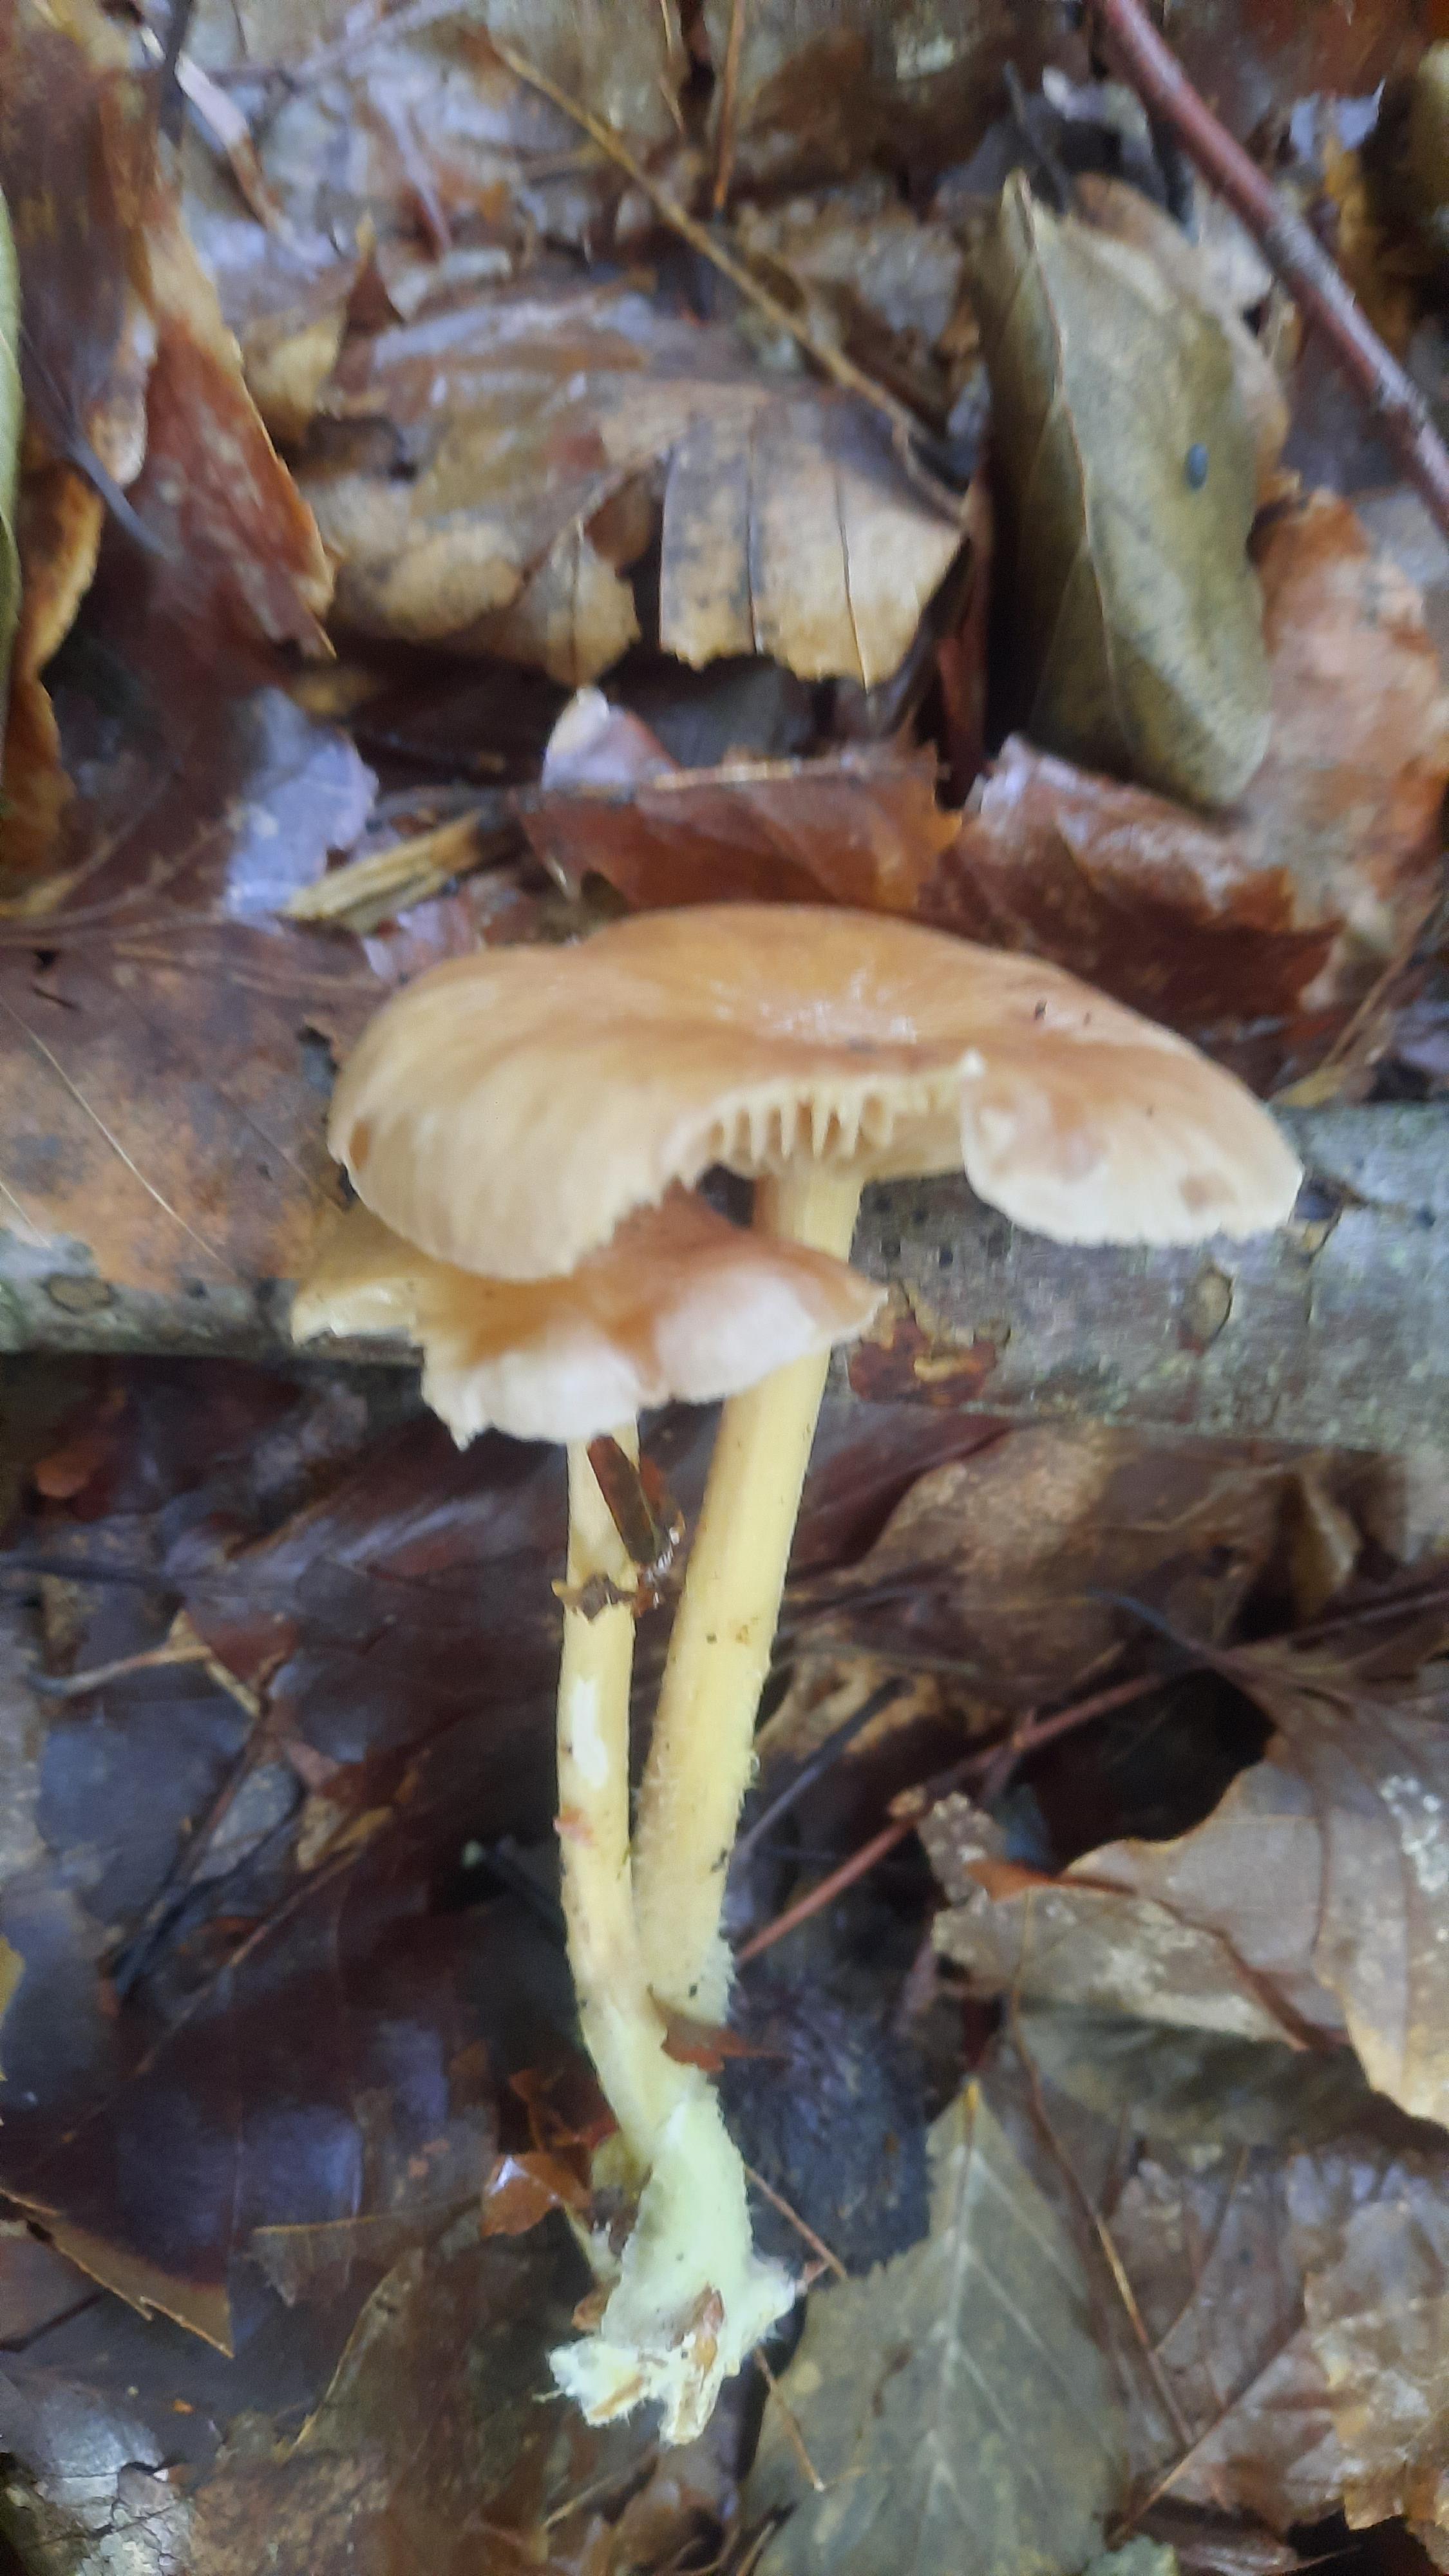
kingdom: Fungi
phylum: Basidiomycota
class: Agaricomycetes
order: Agaricales
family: Omphalotaceae
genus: Collybiopsis
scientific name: Collybiopsis peronata
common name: bestøvlet fladhat
